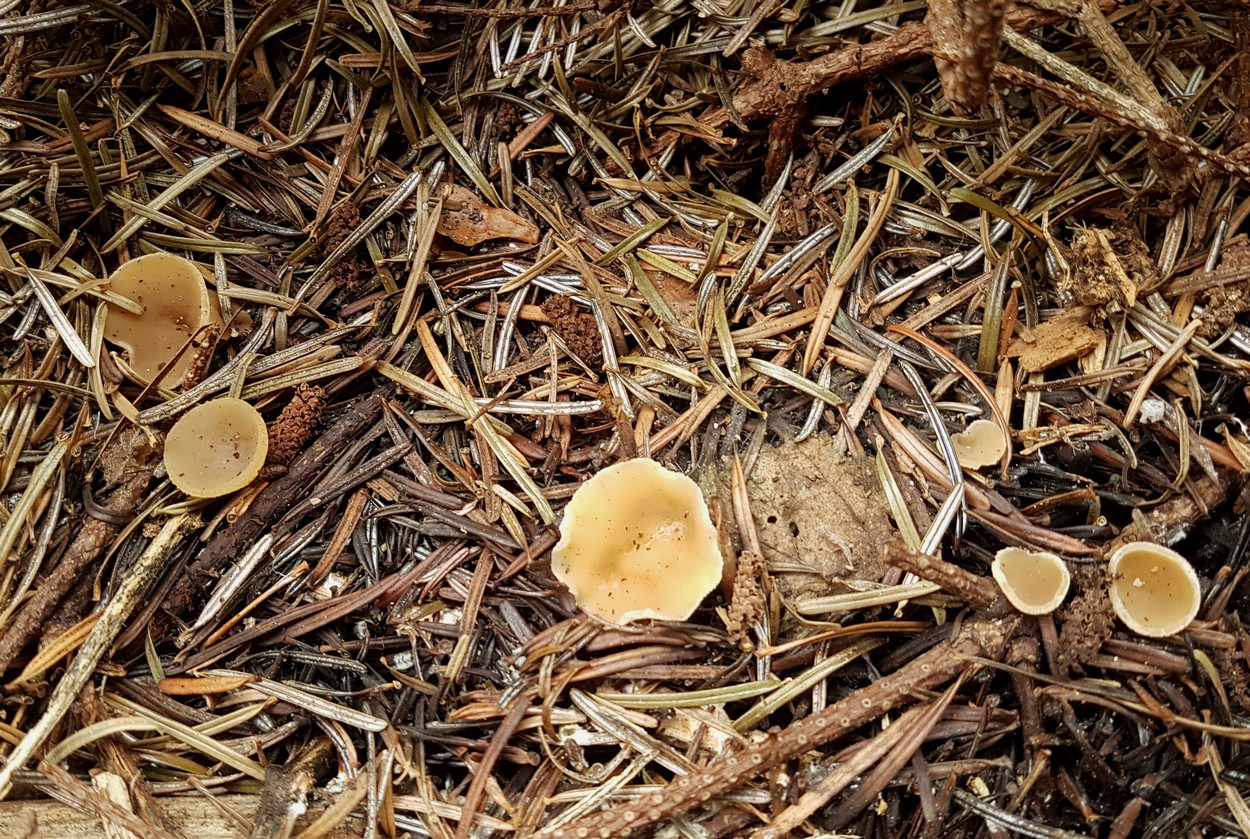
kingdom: Fungi
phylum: Ascomycota
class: Pezizomycetes
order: Pezizales
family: Pezizaceae
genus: Peziza
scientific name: Peziza
